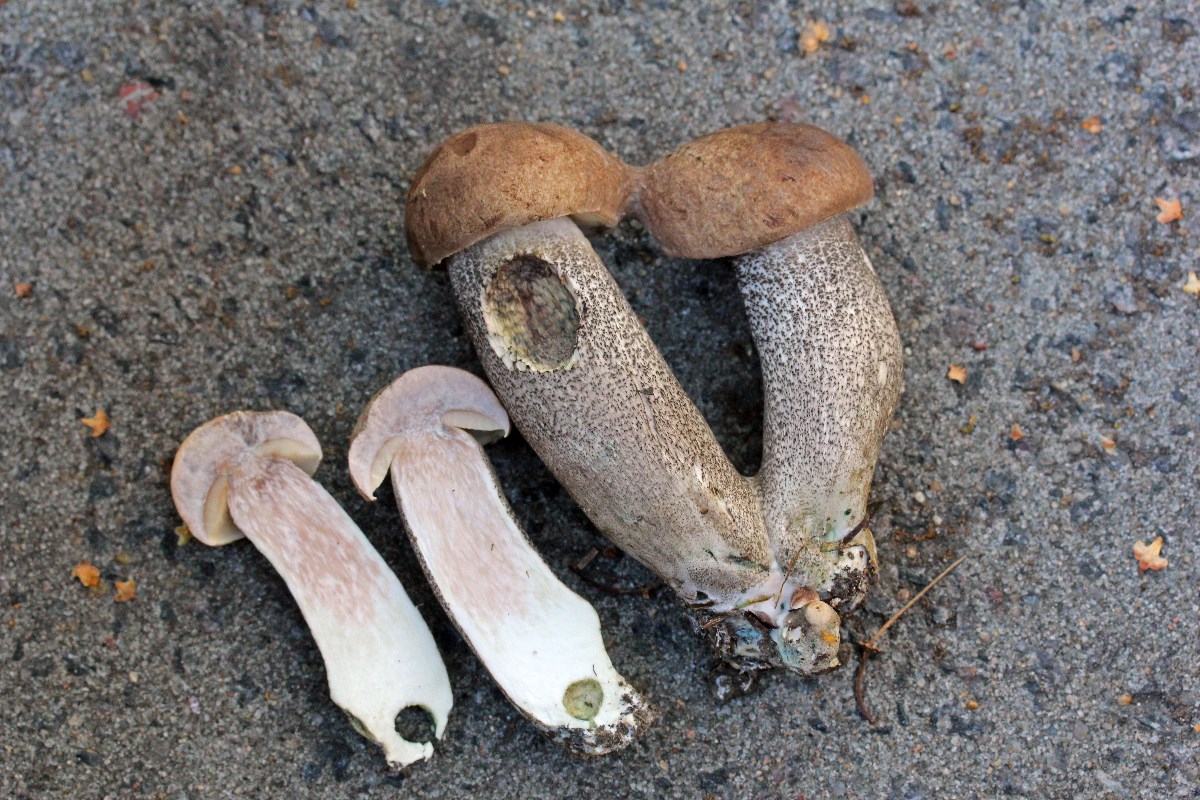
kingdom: Fungi
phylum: Basidiomycota
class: Agaricomycetes
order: Boletales
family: Boletaceae
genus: Leccinum
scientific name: Leccinum duriusculum
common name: poppel-skælrørhat
